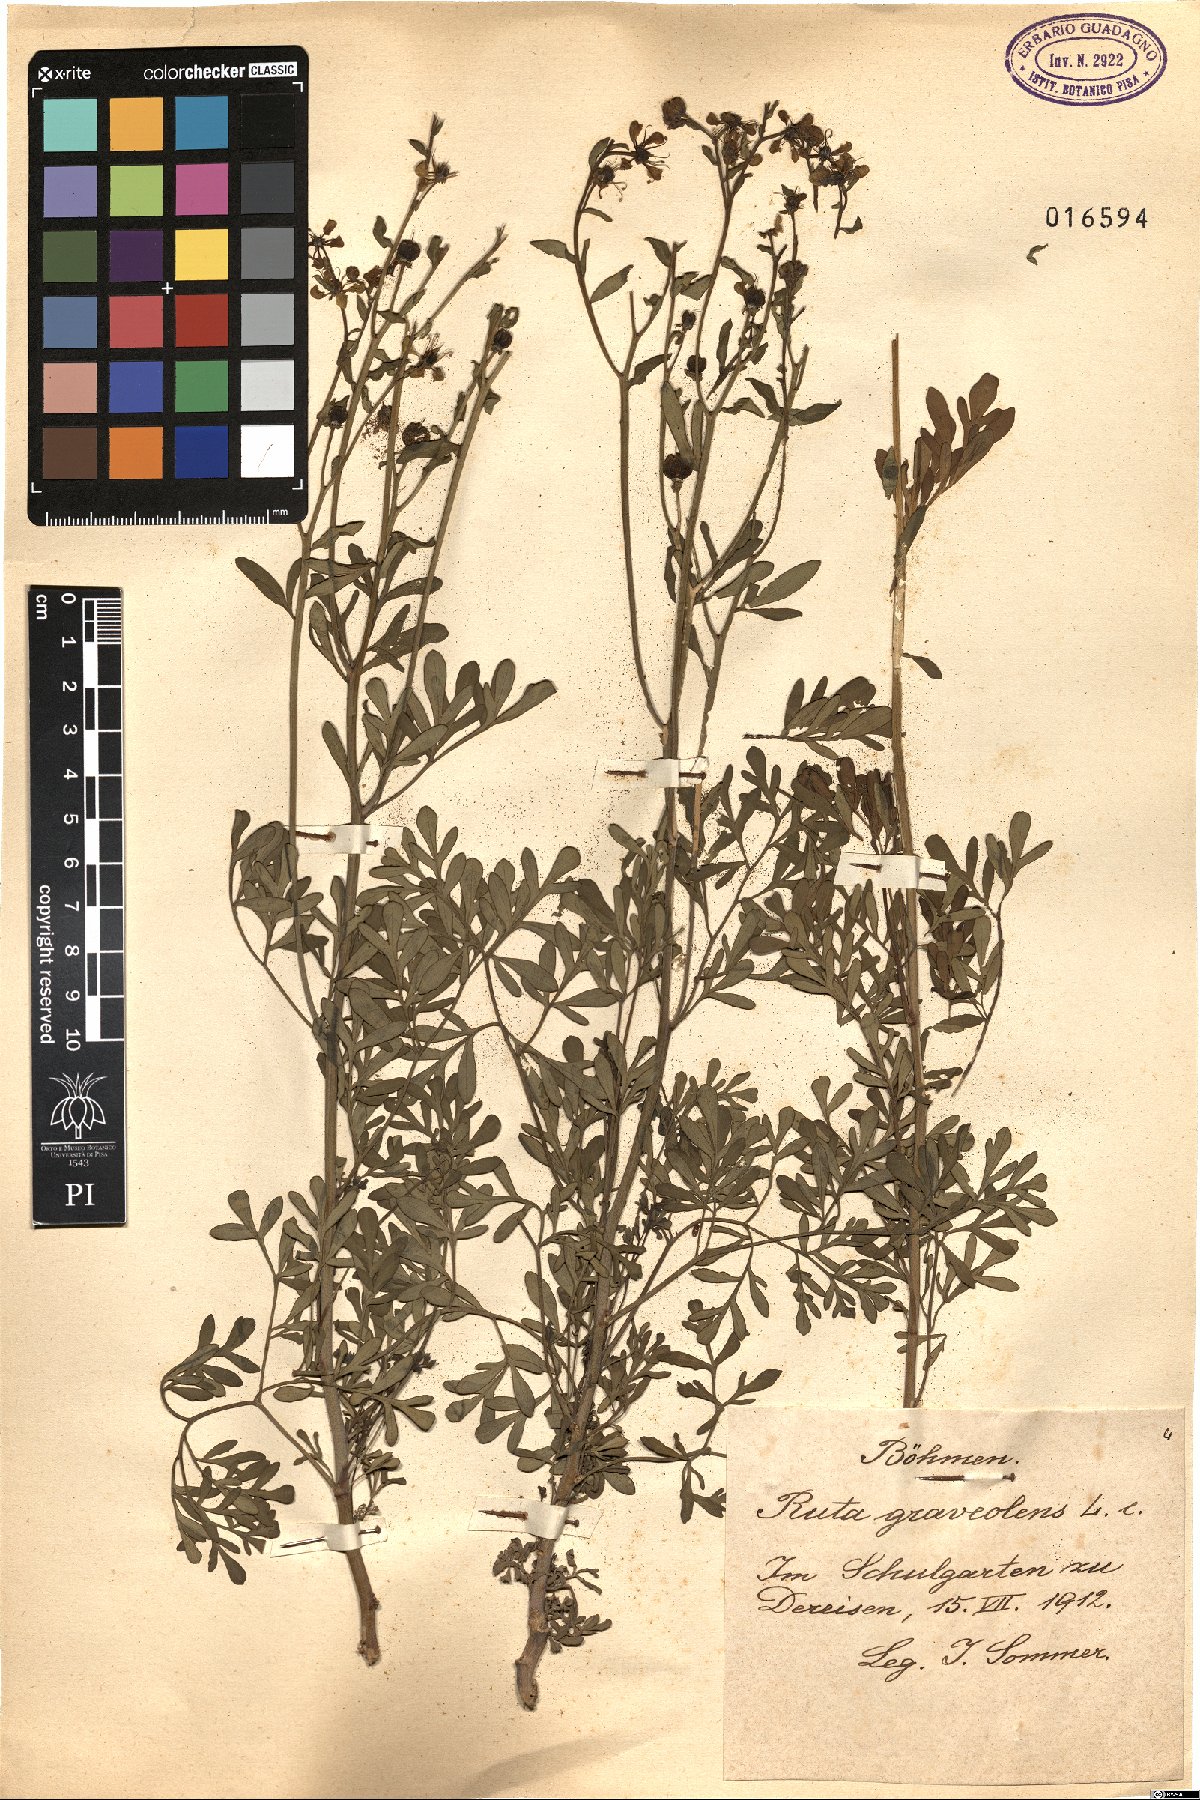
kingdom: Plantae
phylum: Tracheophyta
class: Magnoliopsida
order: Sapindales
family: Rutaceae
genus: Ruta
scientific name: Ruta graveolens
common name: Common rue
